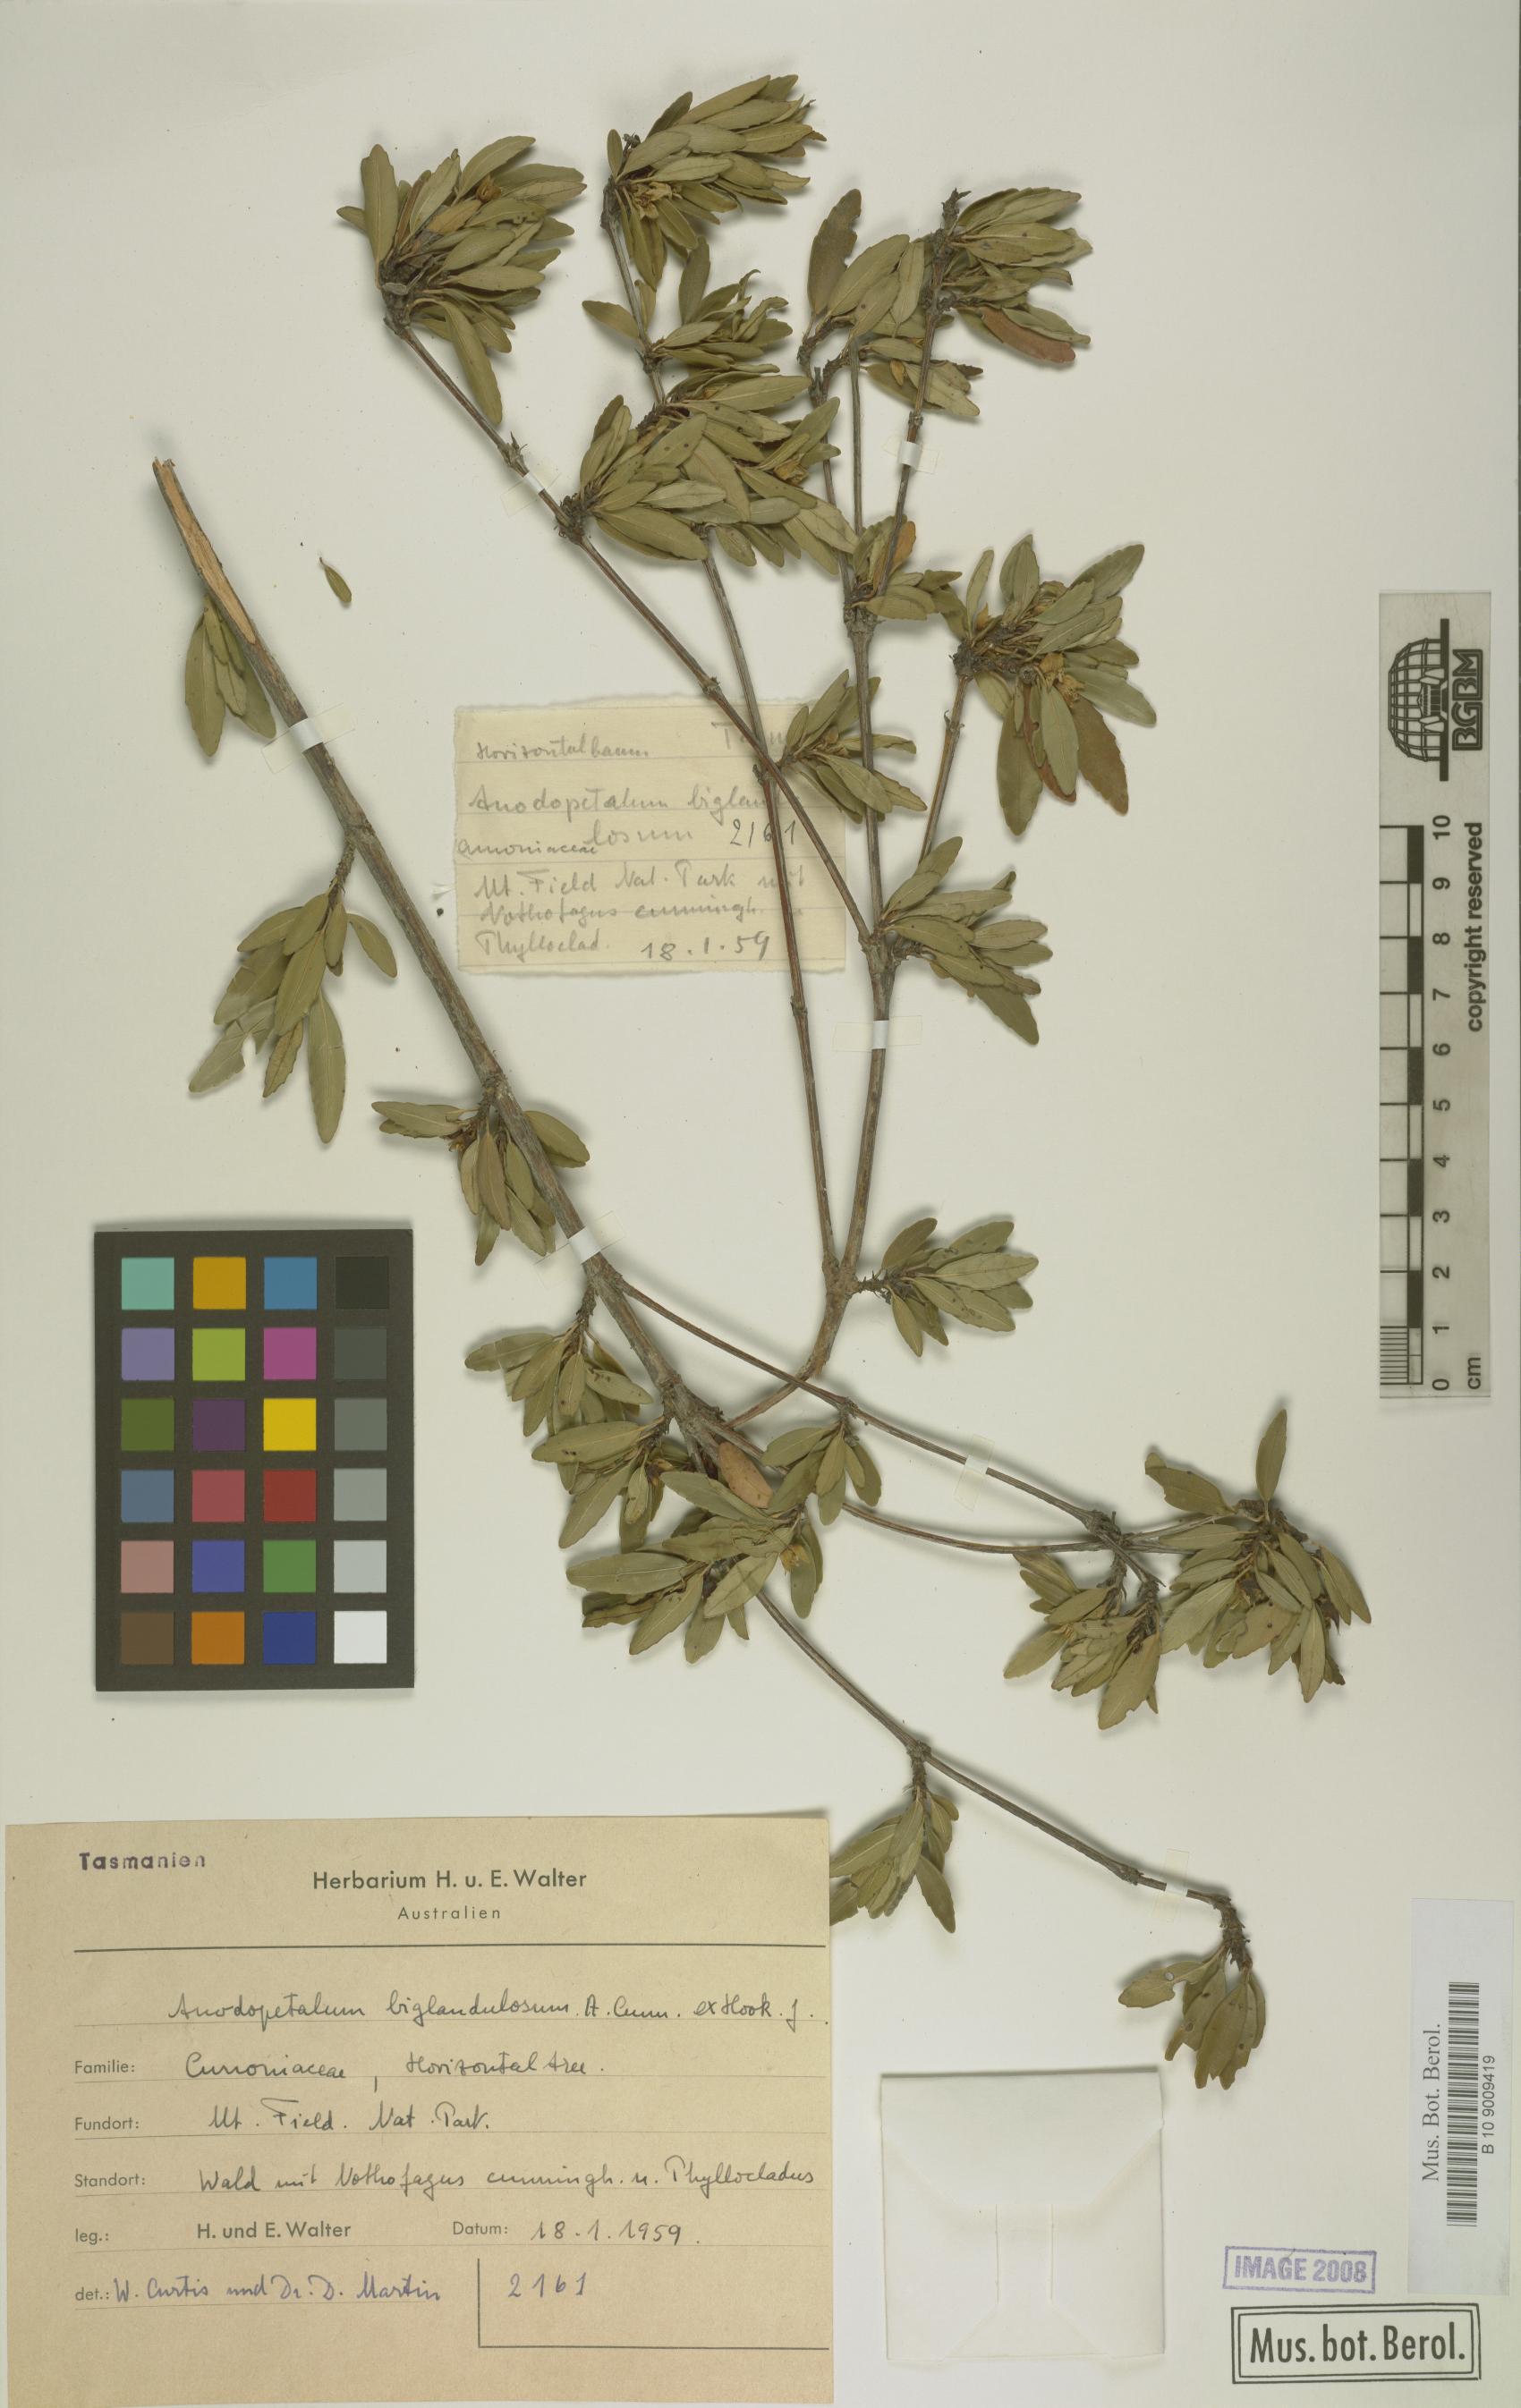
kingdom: Plantae
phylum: Tracheophyta
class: Magnoliopsida
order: Oxalidales
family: Cunoniaceae
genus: Anodopetalum
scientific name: Anodopetalum biglandulosum
